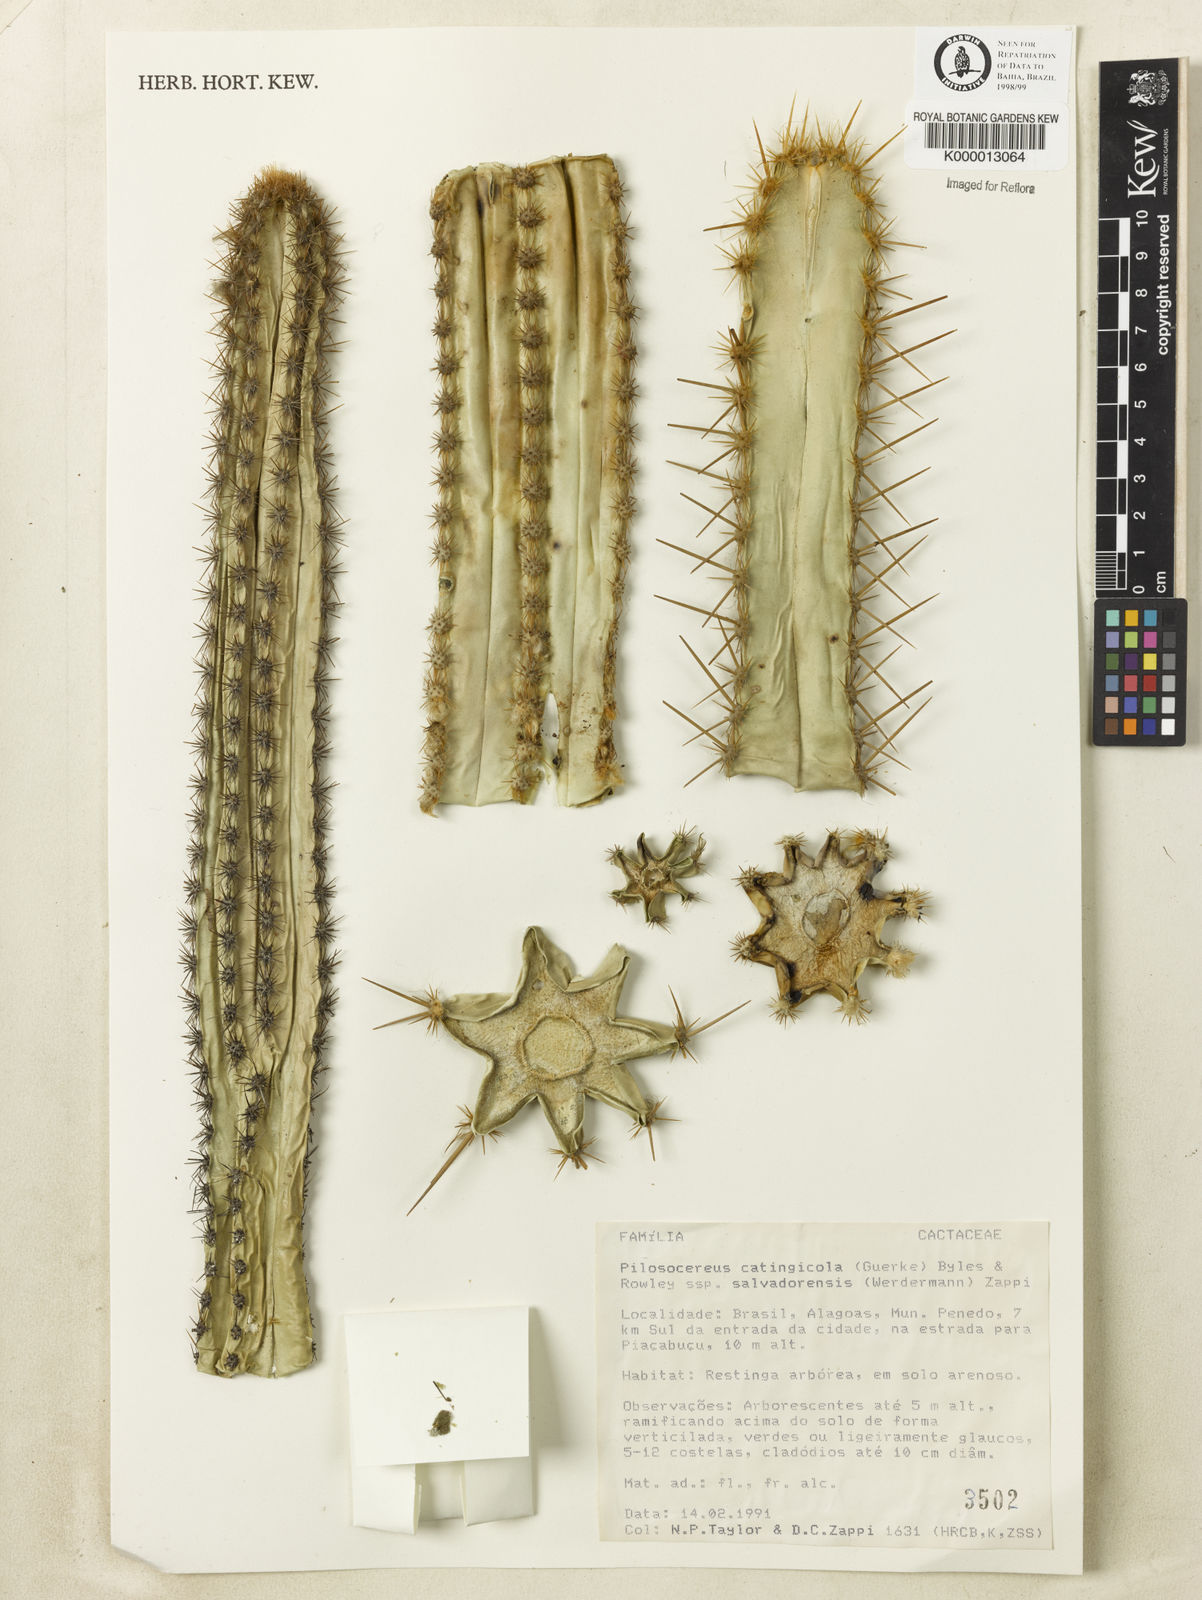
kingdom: Plantae
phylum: Tracheophyta
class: Magnoliopsida
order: Caryophyllales
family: Cactaceae
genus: Pilosocereus
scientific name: Pilosocereus catingicola
